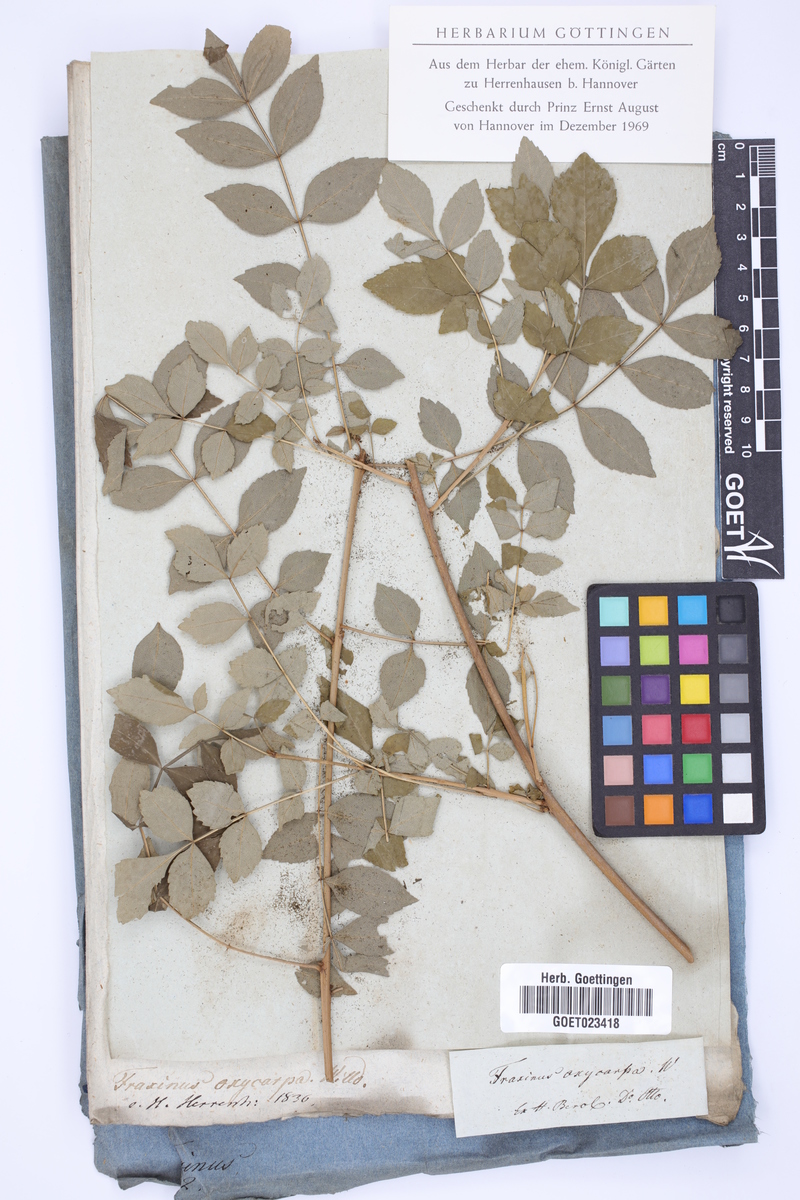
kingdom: Plantae
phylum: Tracheophyta
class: Magnoliopsida
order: Lamiales
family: Oleaceae
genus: Fraxinus
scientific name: Fraxinus angustifolia
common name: Narrow-leafed ash
